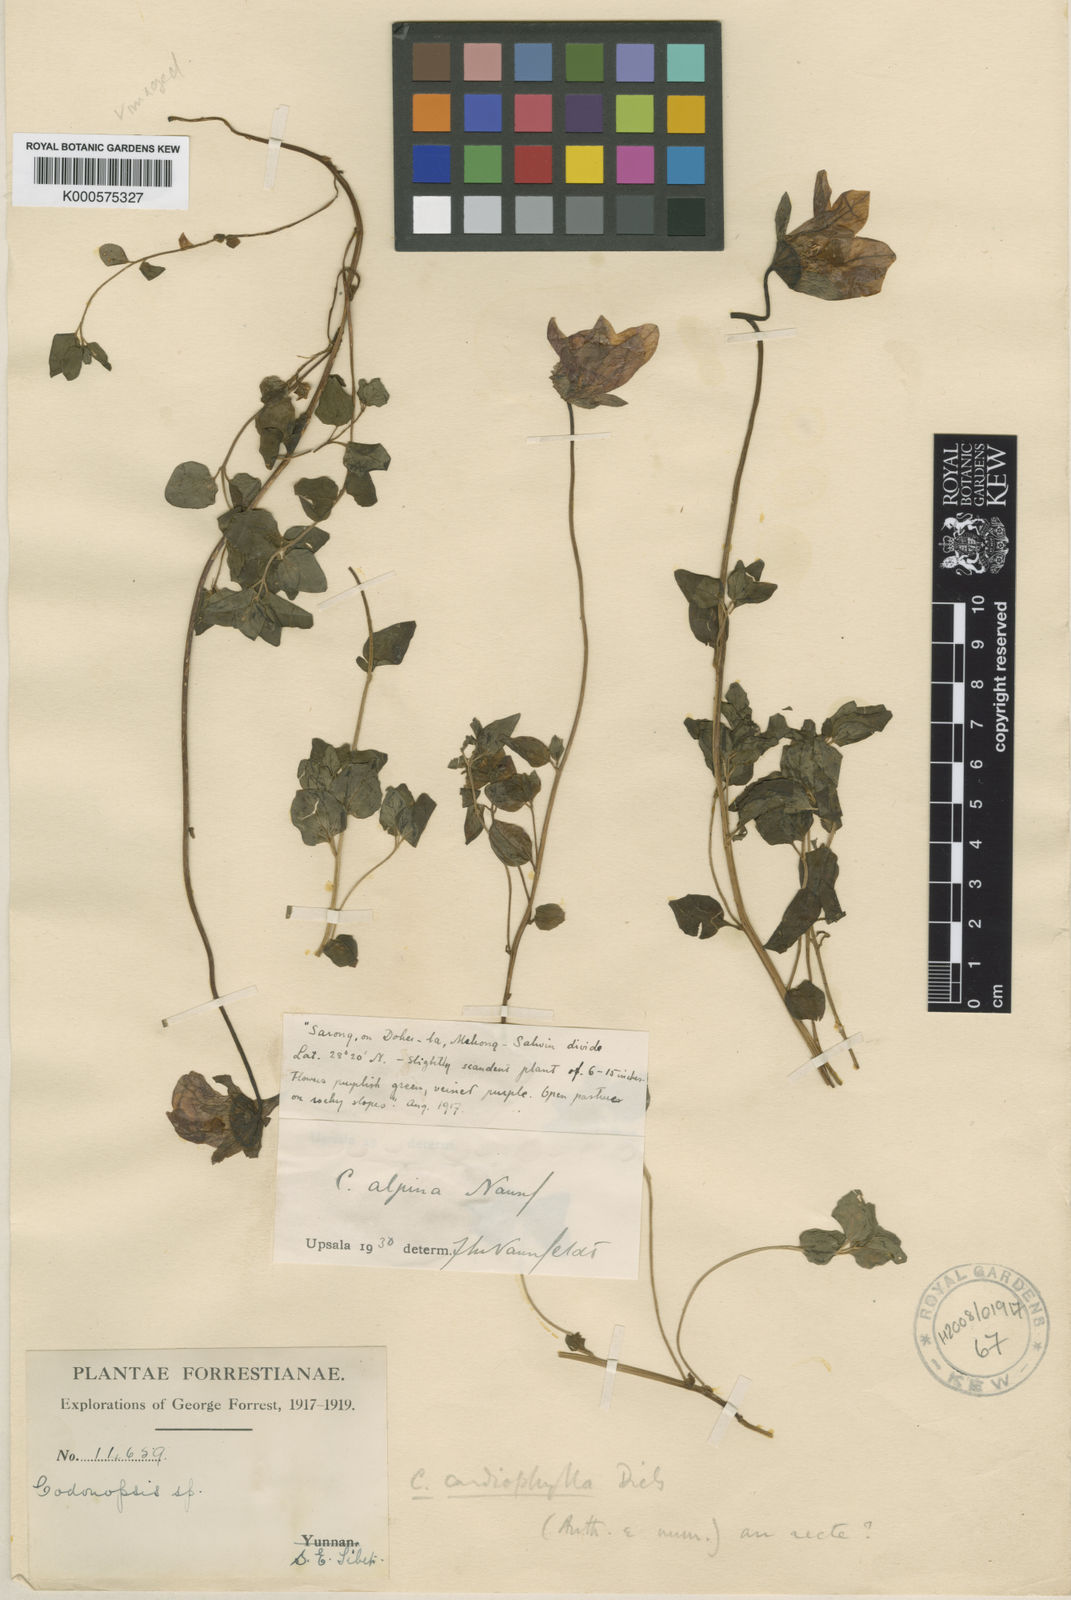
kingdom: Plantae
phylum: Tracheophyta
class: Magnoliopsida
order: Asterales
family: Campanulaceae
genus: Codonopsis
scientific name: Codonopsis alpina
